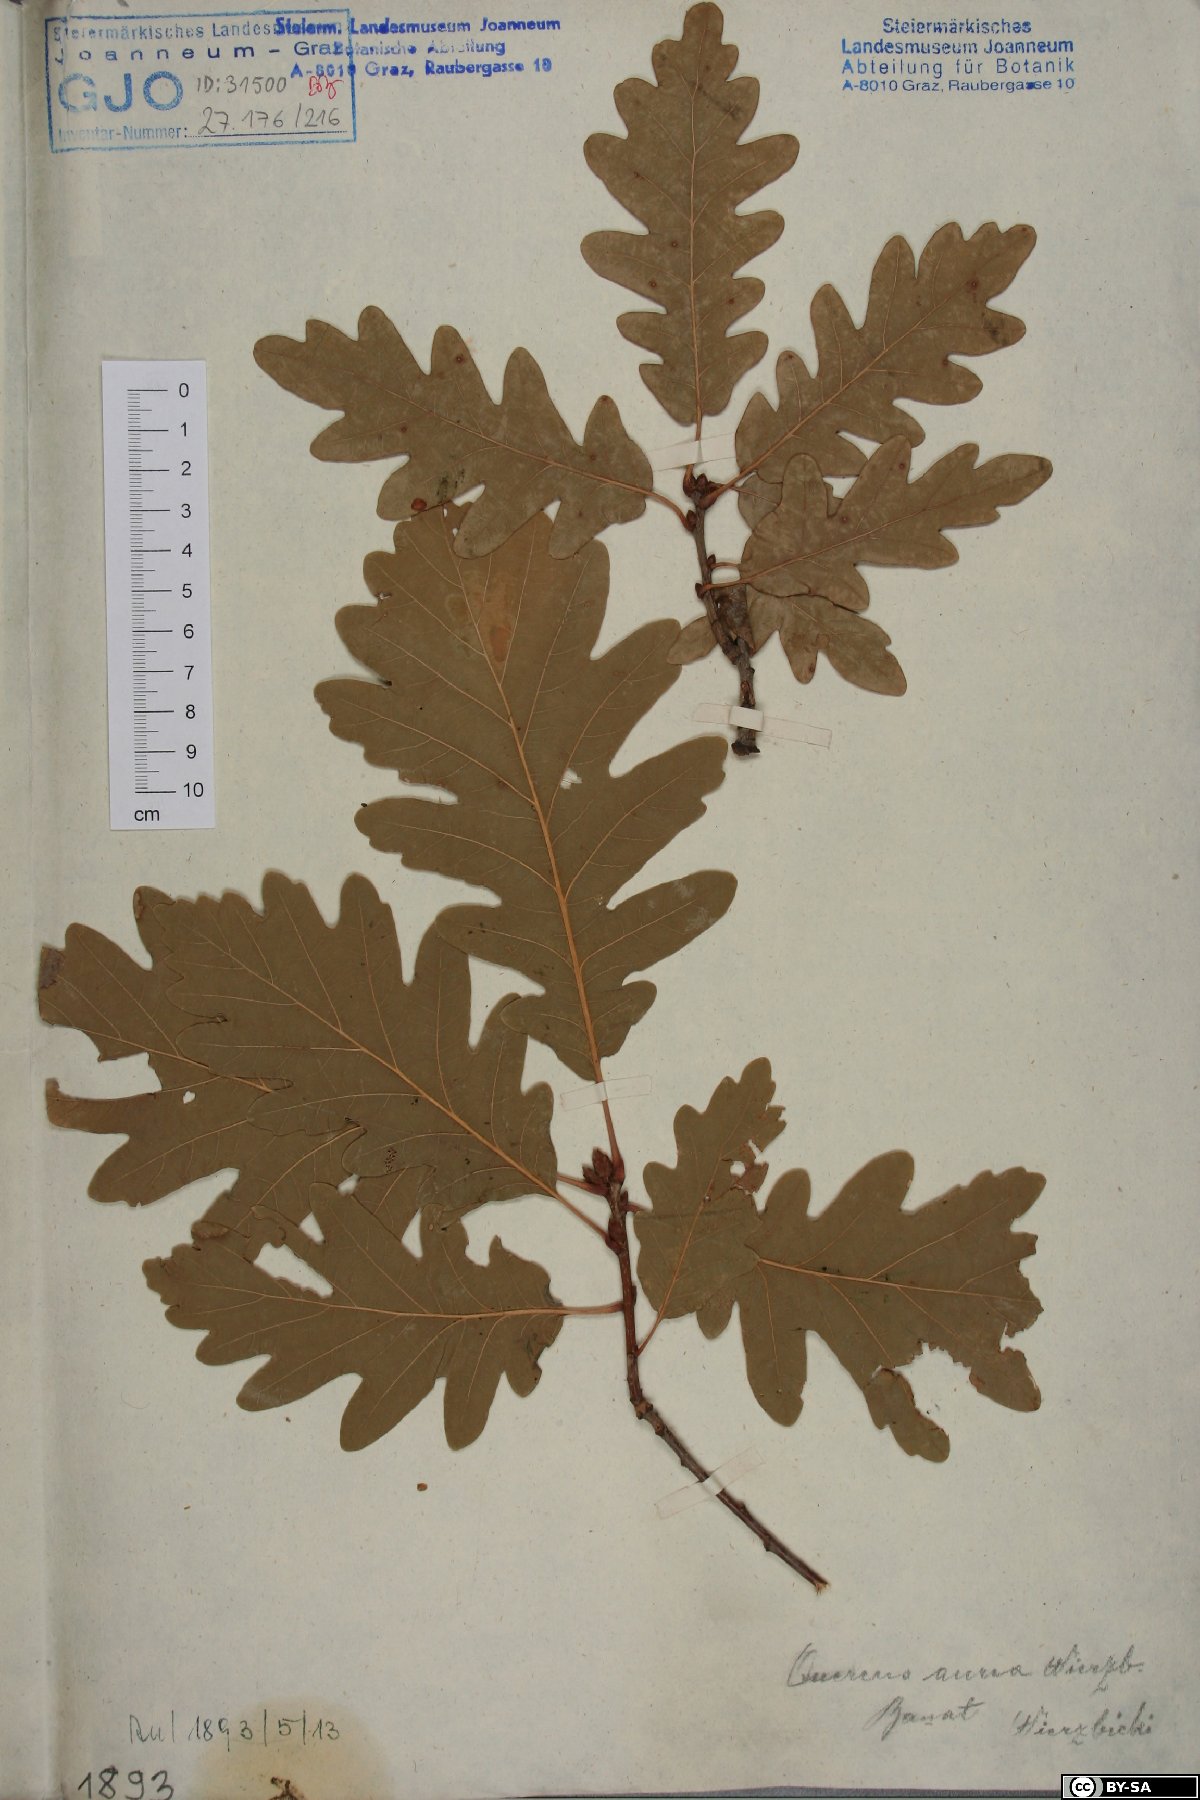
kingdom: Plantae
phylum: Tracheophyta
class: Magnoliopsida
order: Fagales
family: Fagaceae
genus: Quercus
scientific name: Quercus dalechampii
